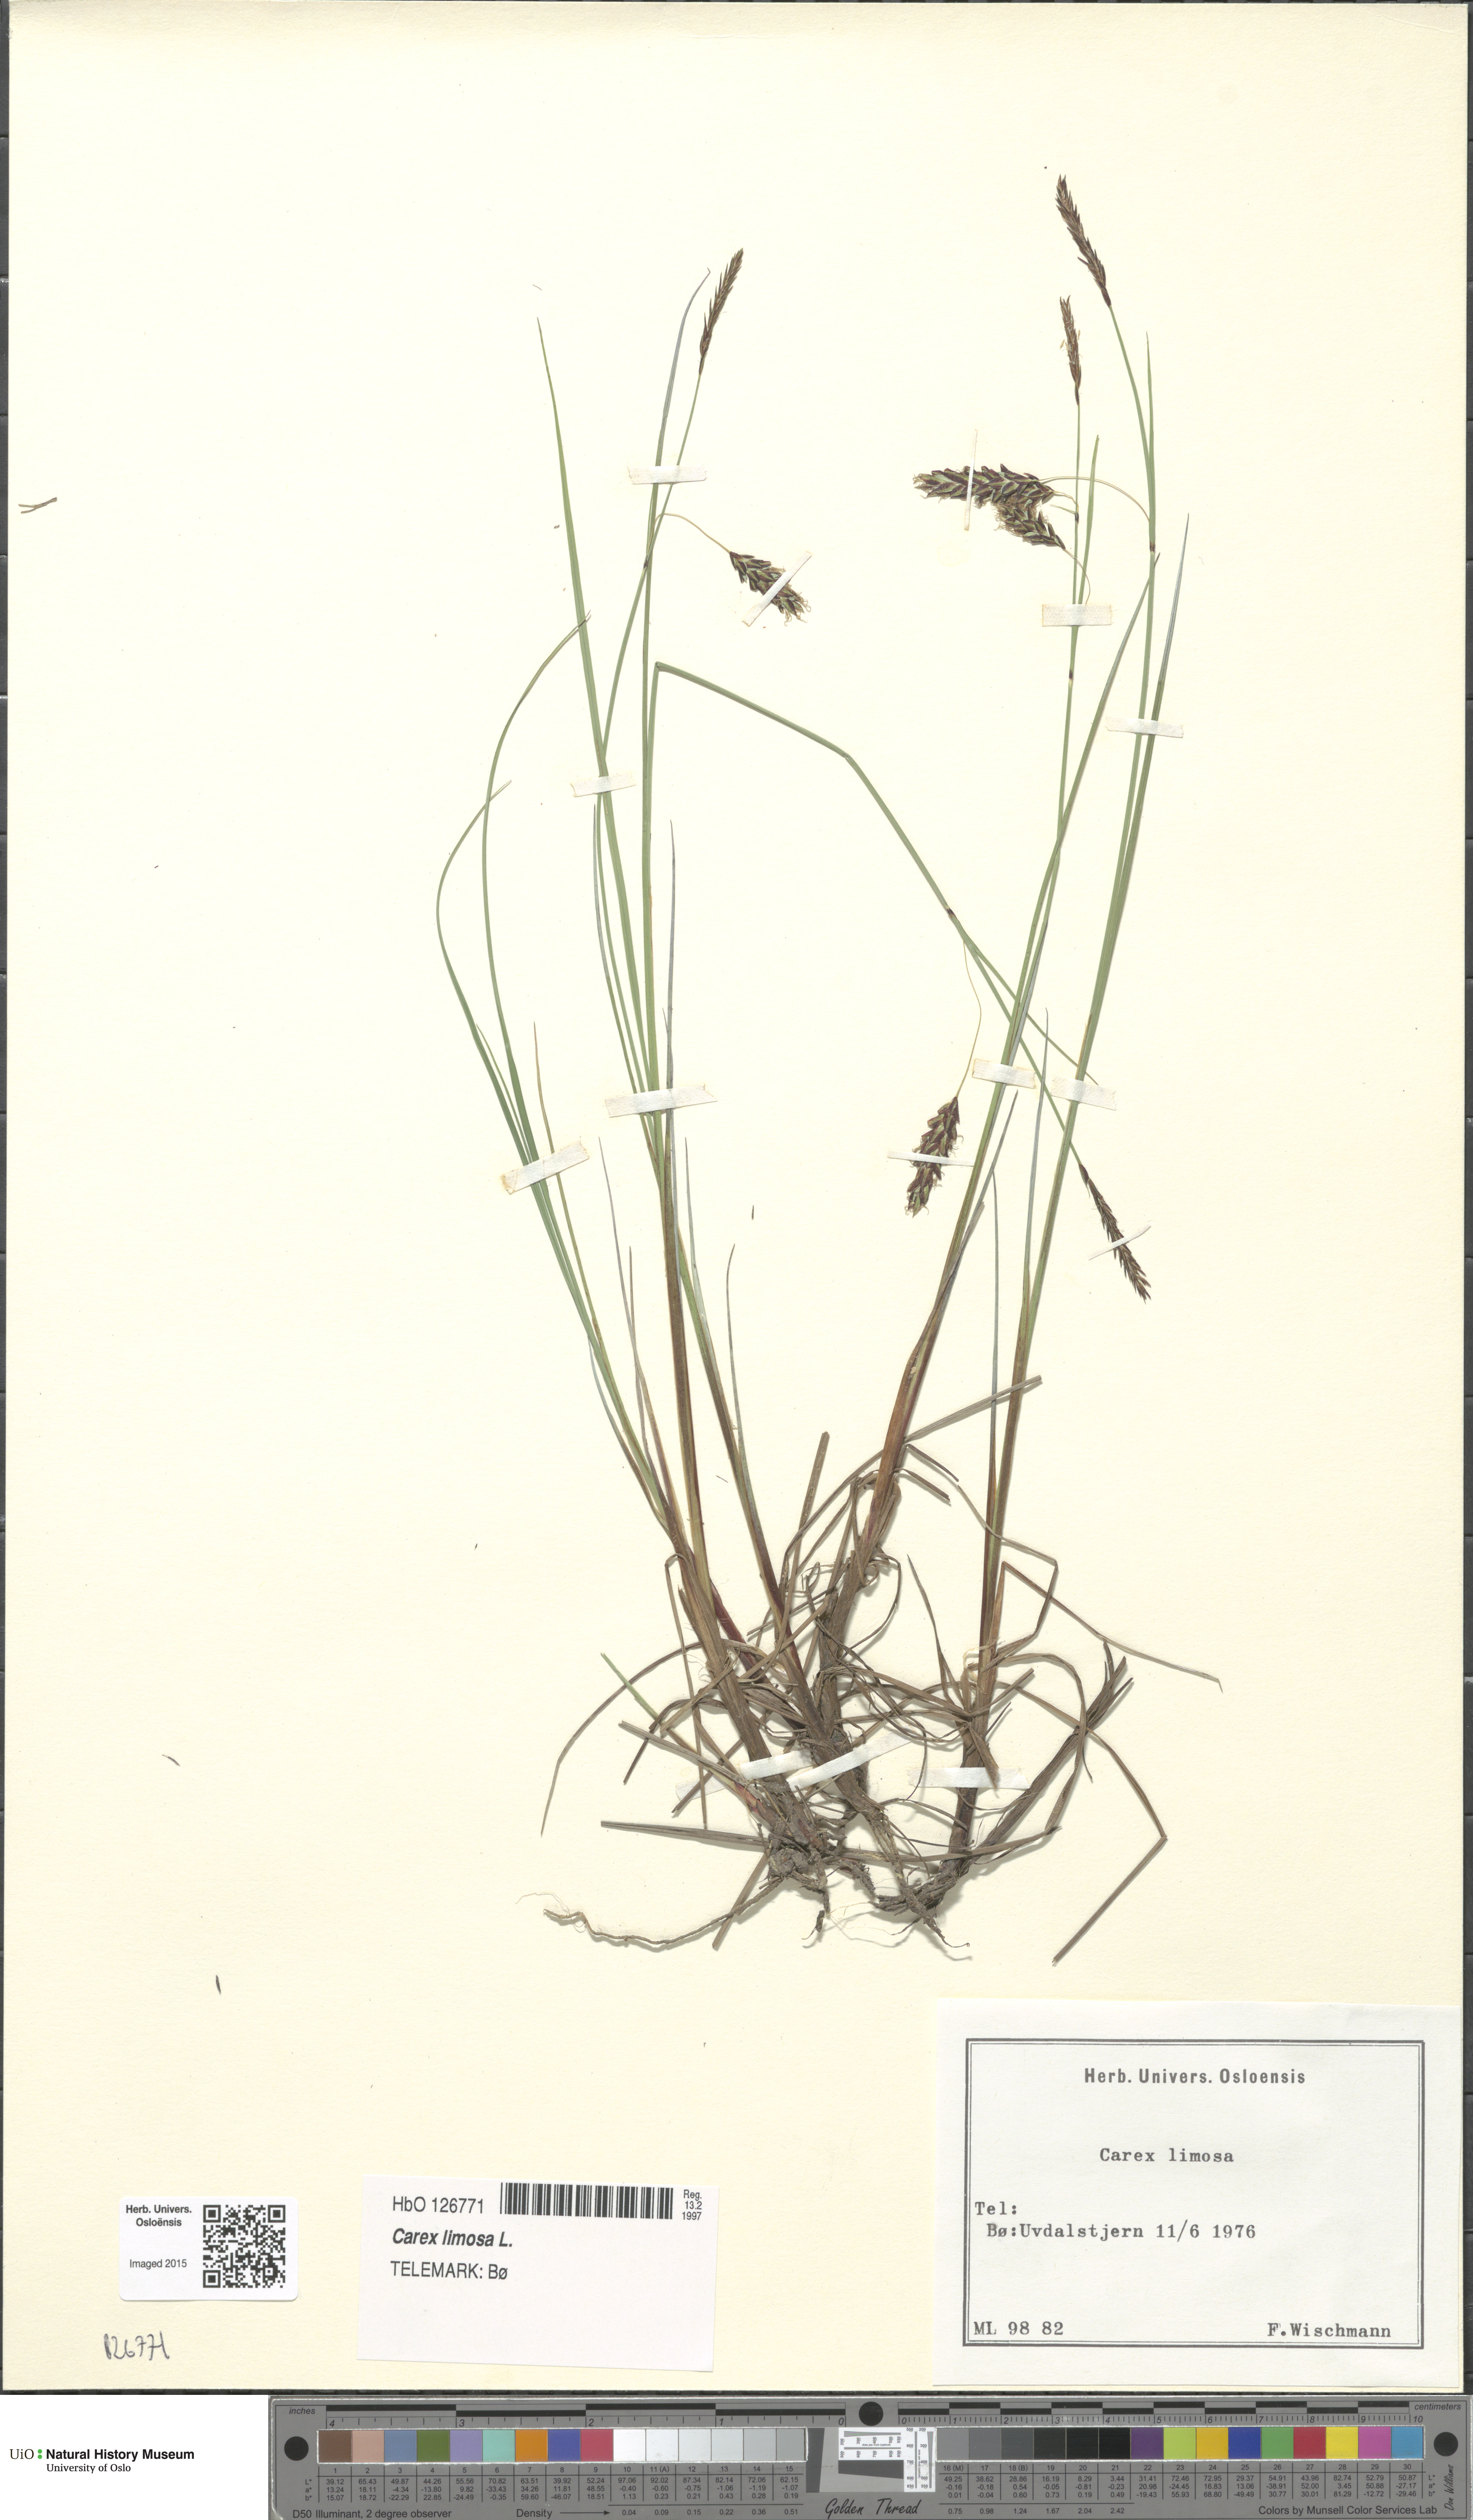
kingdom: Plantae
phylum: Tracheophyta
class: Liliopsida
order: Poales
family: Cyperaceae
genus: Carex
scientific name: Carex limosa
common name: Bog sedge
